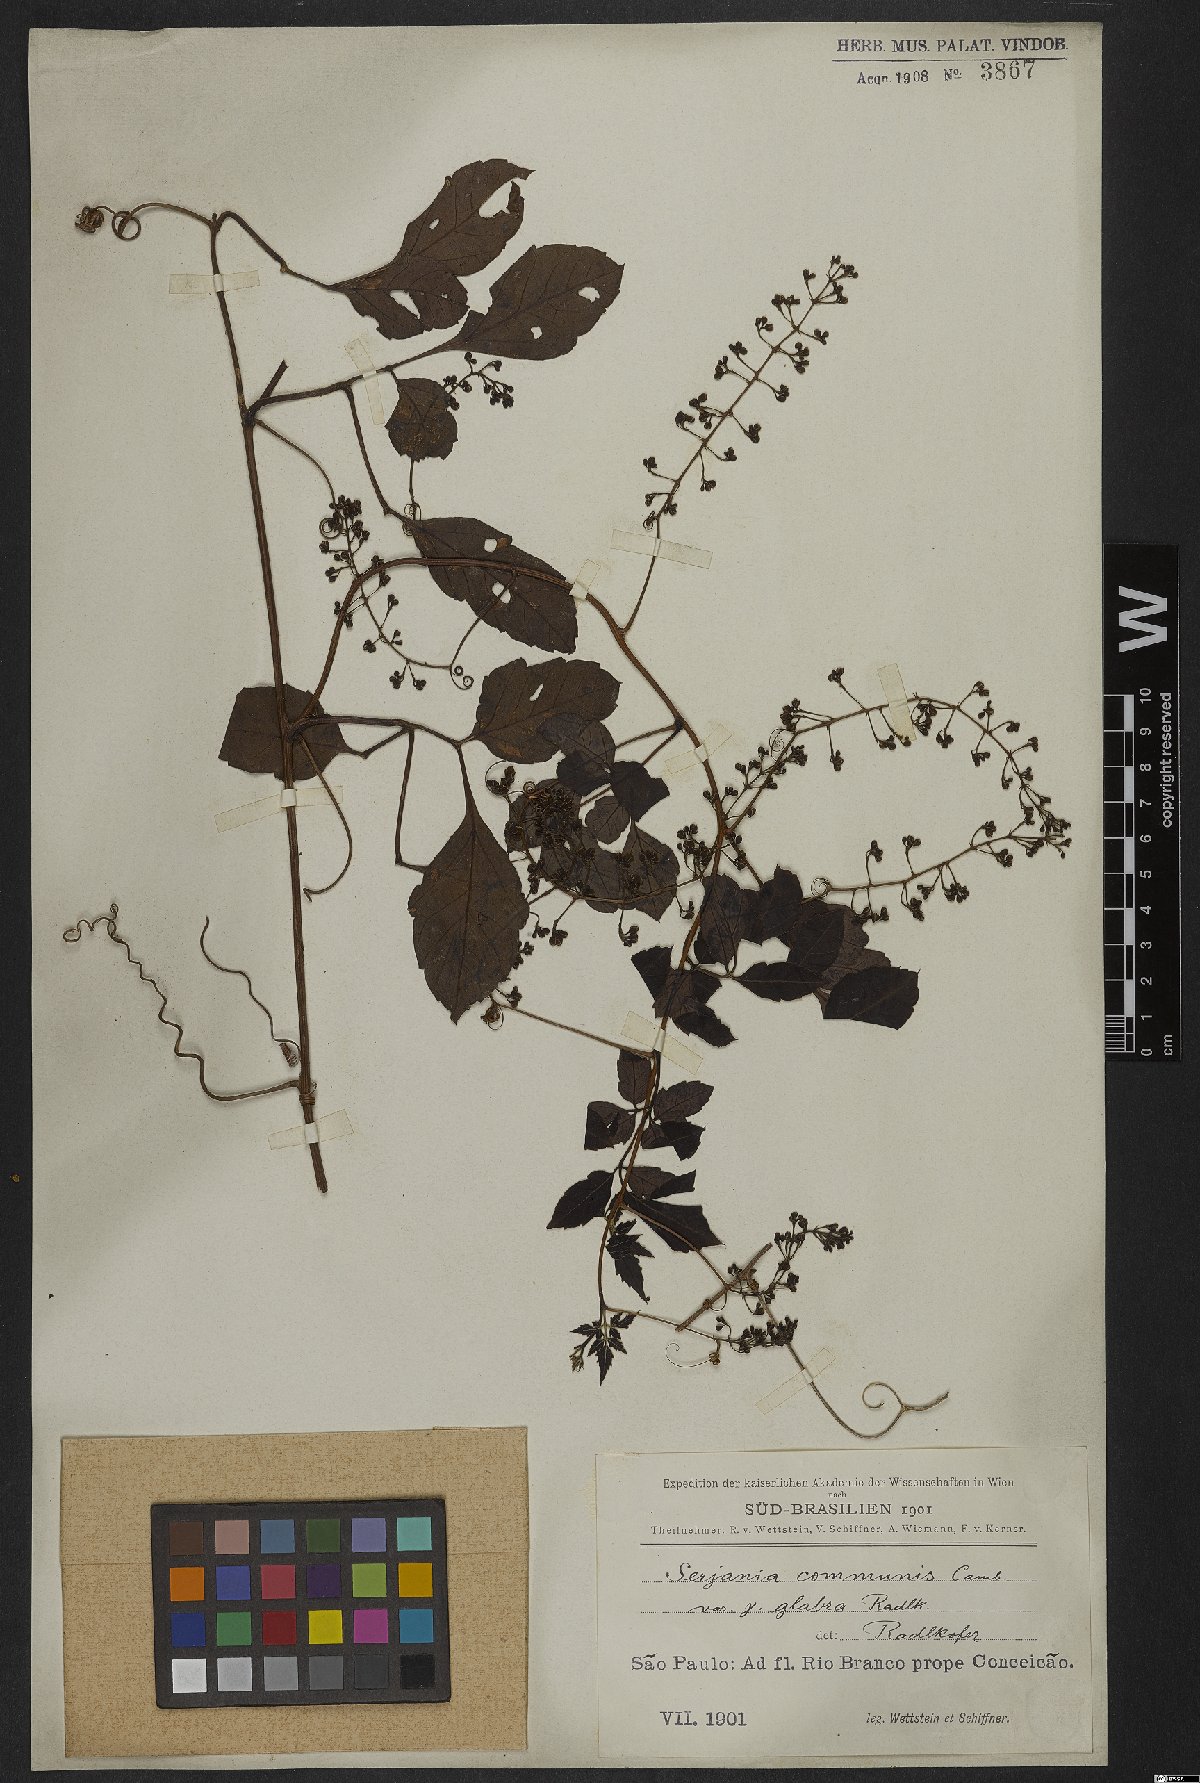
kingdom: Plantae
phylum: Tracheophyta
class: Magnoliopsida
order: Sapindales
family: Sapindaceae
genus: Serjania
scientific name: Serjania communis
